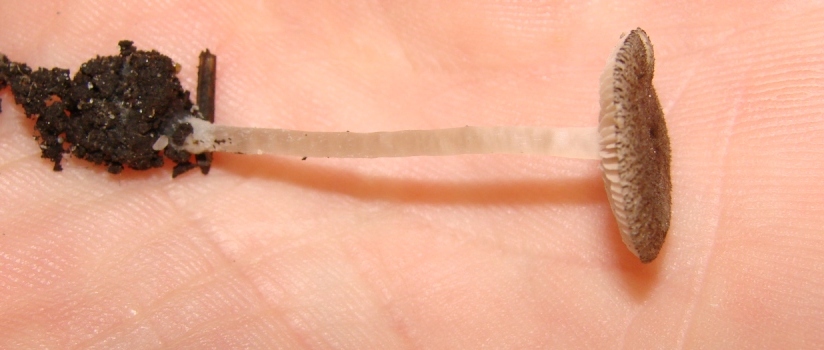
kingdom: Fungi
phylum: Basidiomycota
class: Agaricomycetes
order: Agaricales
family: Pluteaceae
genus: Pluteus
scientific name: Pluteus exiguus
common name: finskællet skærmhat
